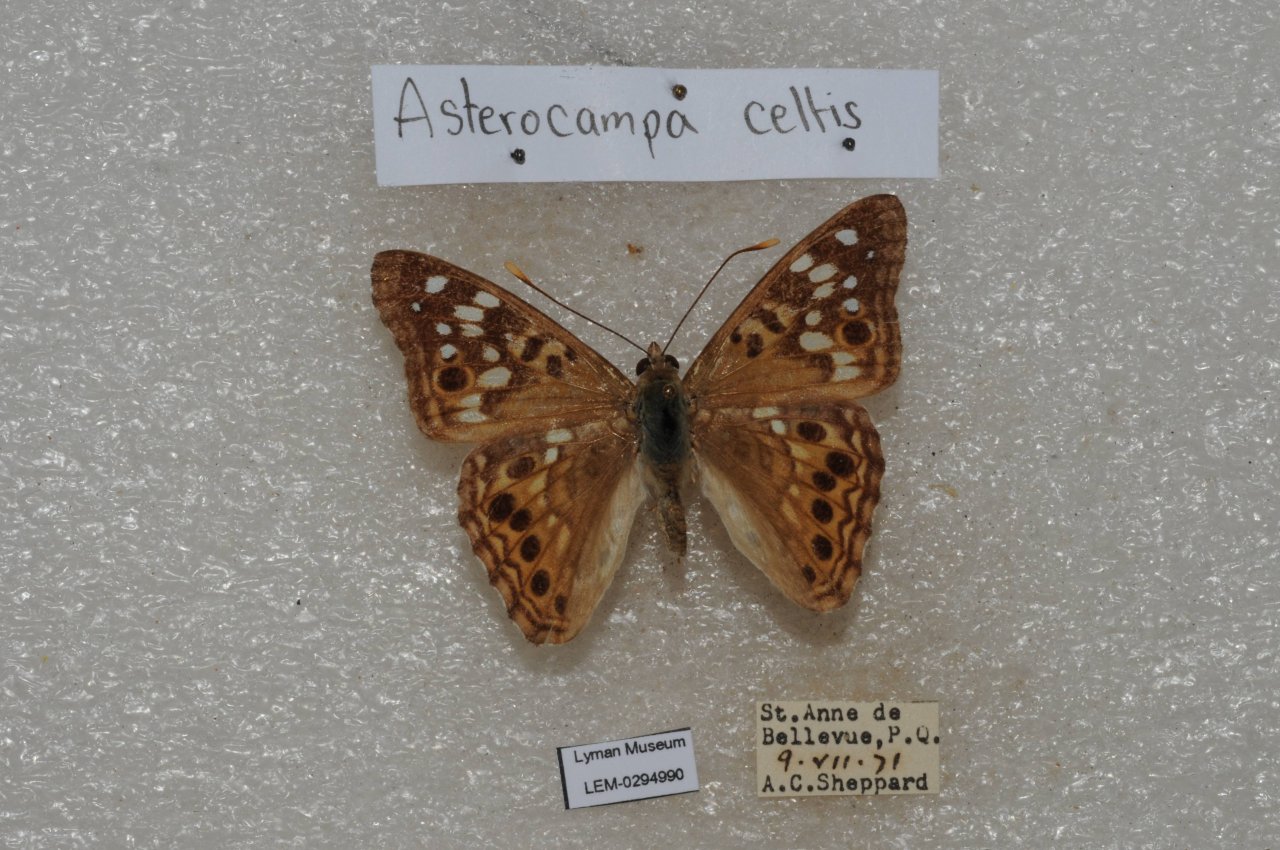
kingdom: Animalia
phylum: Arthropoda
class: Insecta
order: Lepidoptera
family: Nymphalidae
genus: Asterocampa
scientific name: Asterocampa celtis
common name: Hackberry Emperor
